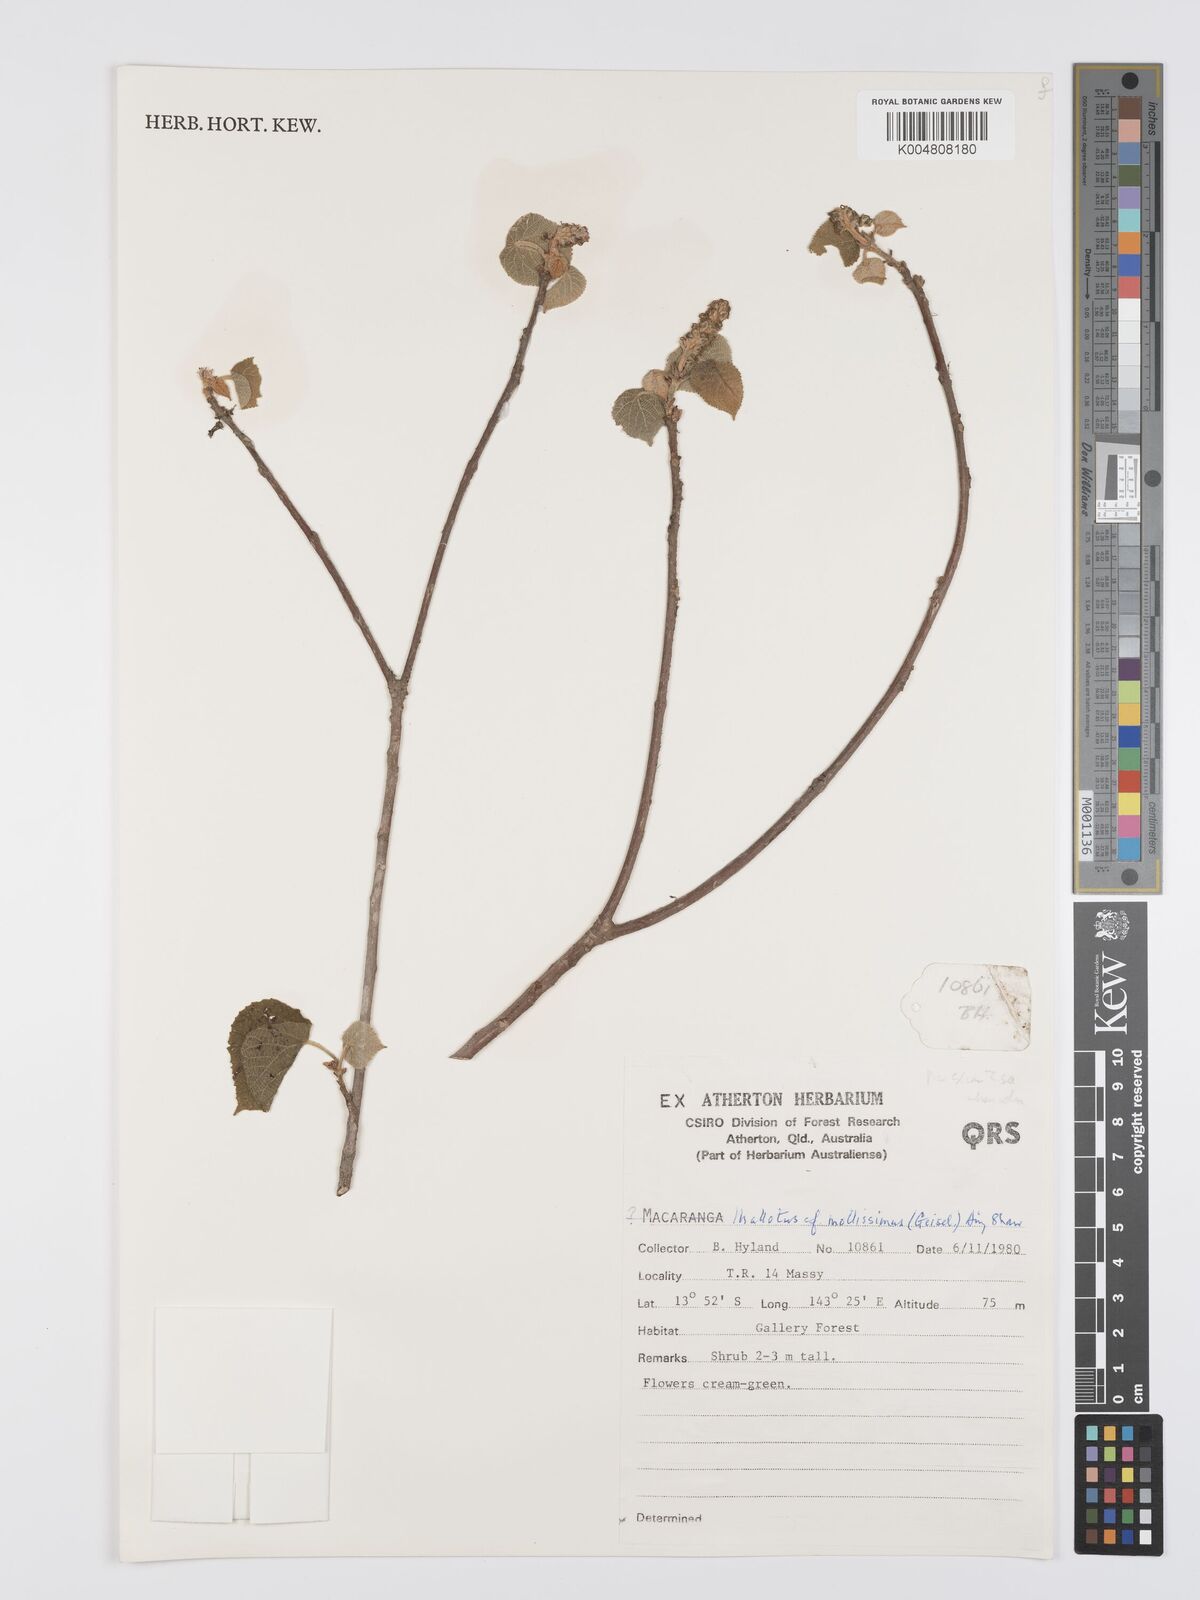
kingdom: Plantae
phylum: Tracheophyta
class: Magnoliopsida
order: Malpighiales
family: Euphorbiaceae
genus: Mallotus
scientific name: Mallotus mollissimus
